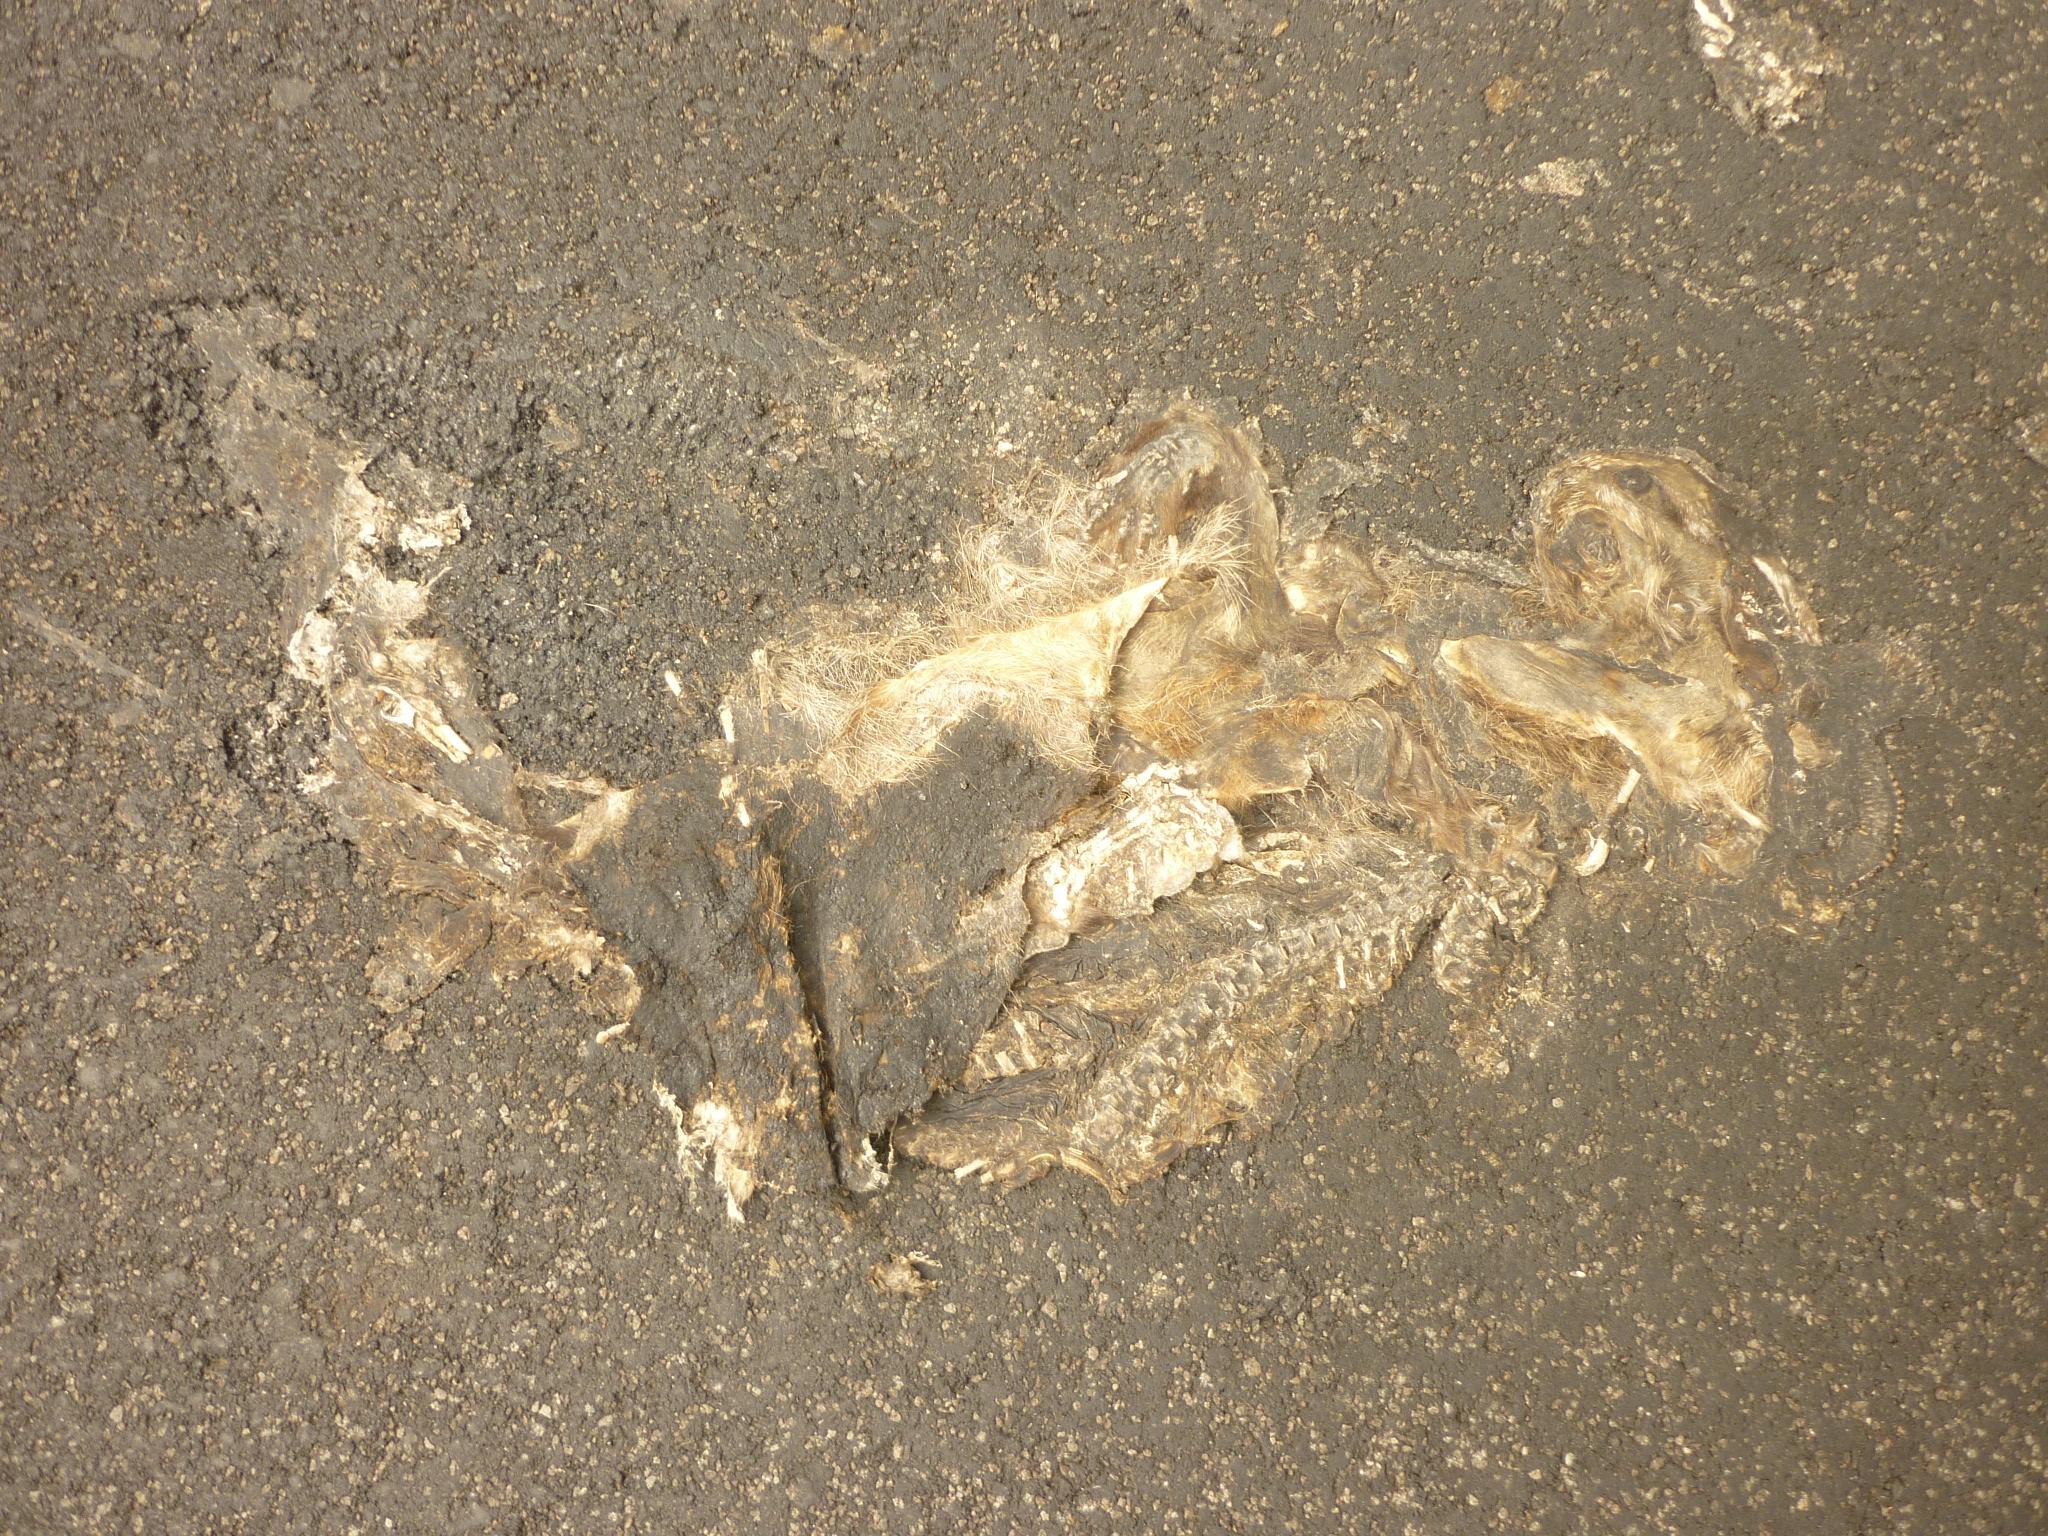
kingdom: Animalia
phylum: Chordata
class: Mammalia
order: Lagomorpha
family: Leporidae
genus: Lepus
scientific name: Lepus europaeus
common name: European hare
